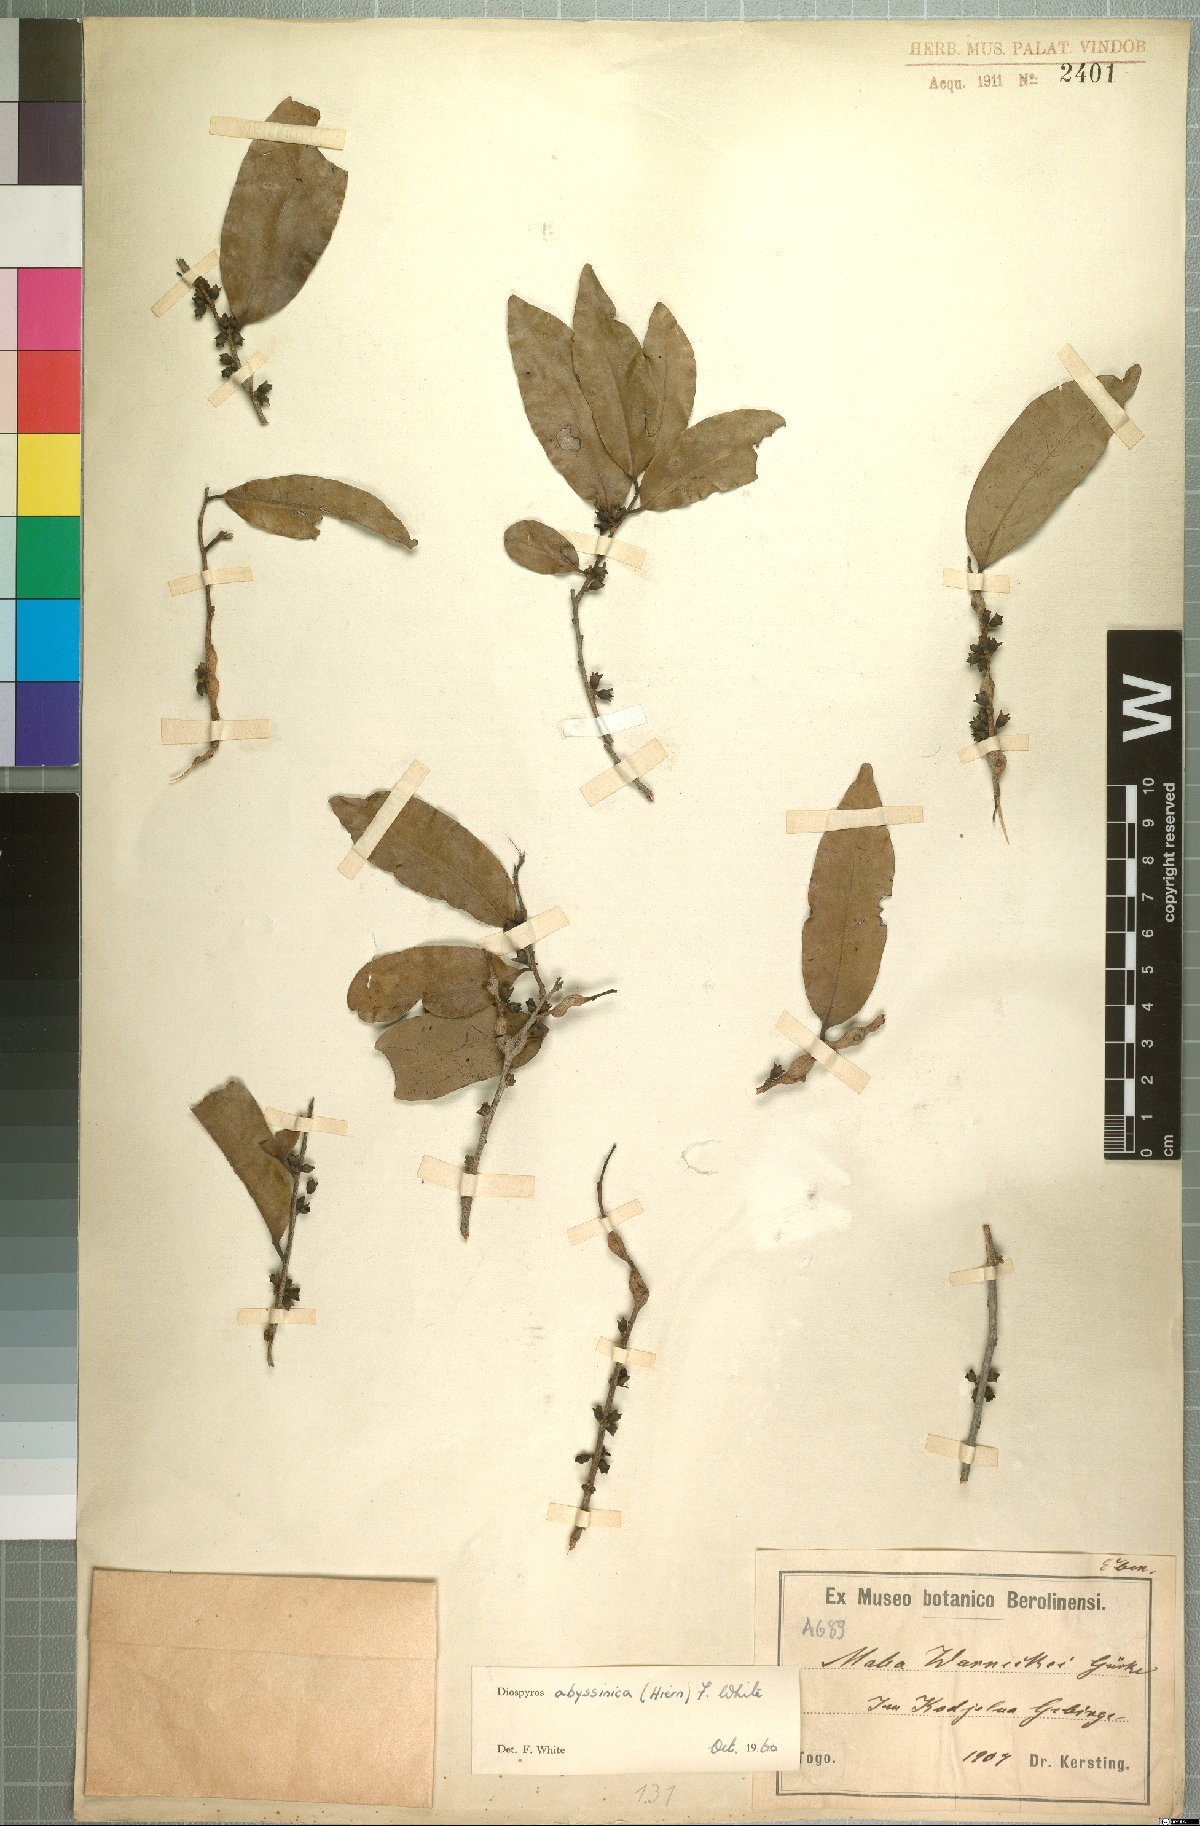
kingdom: Plantae
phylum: Tracheophyta
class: Magnoliopsida
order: Ericales
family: Ebenaceae
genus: Diospyros
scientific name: Diospyros abyssinica
